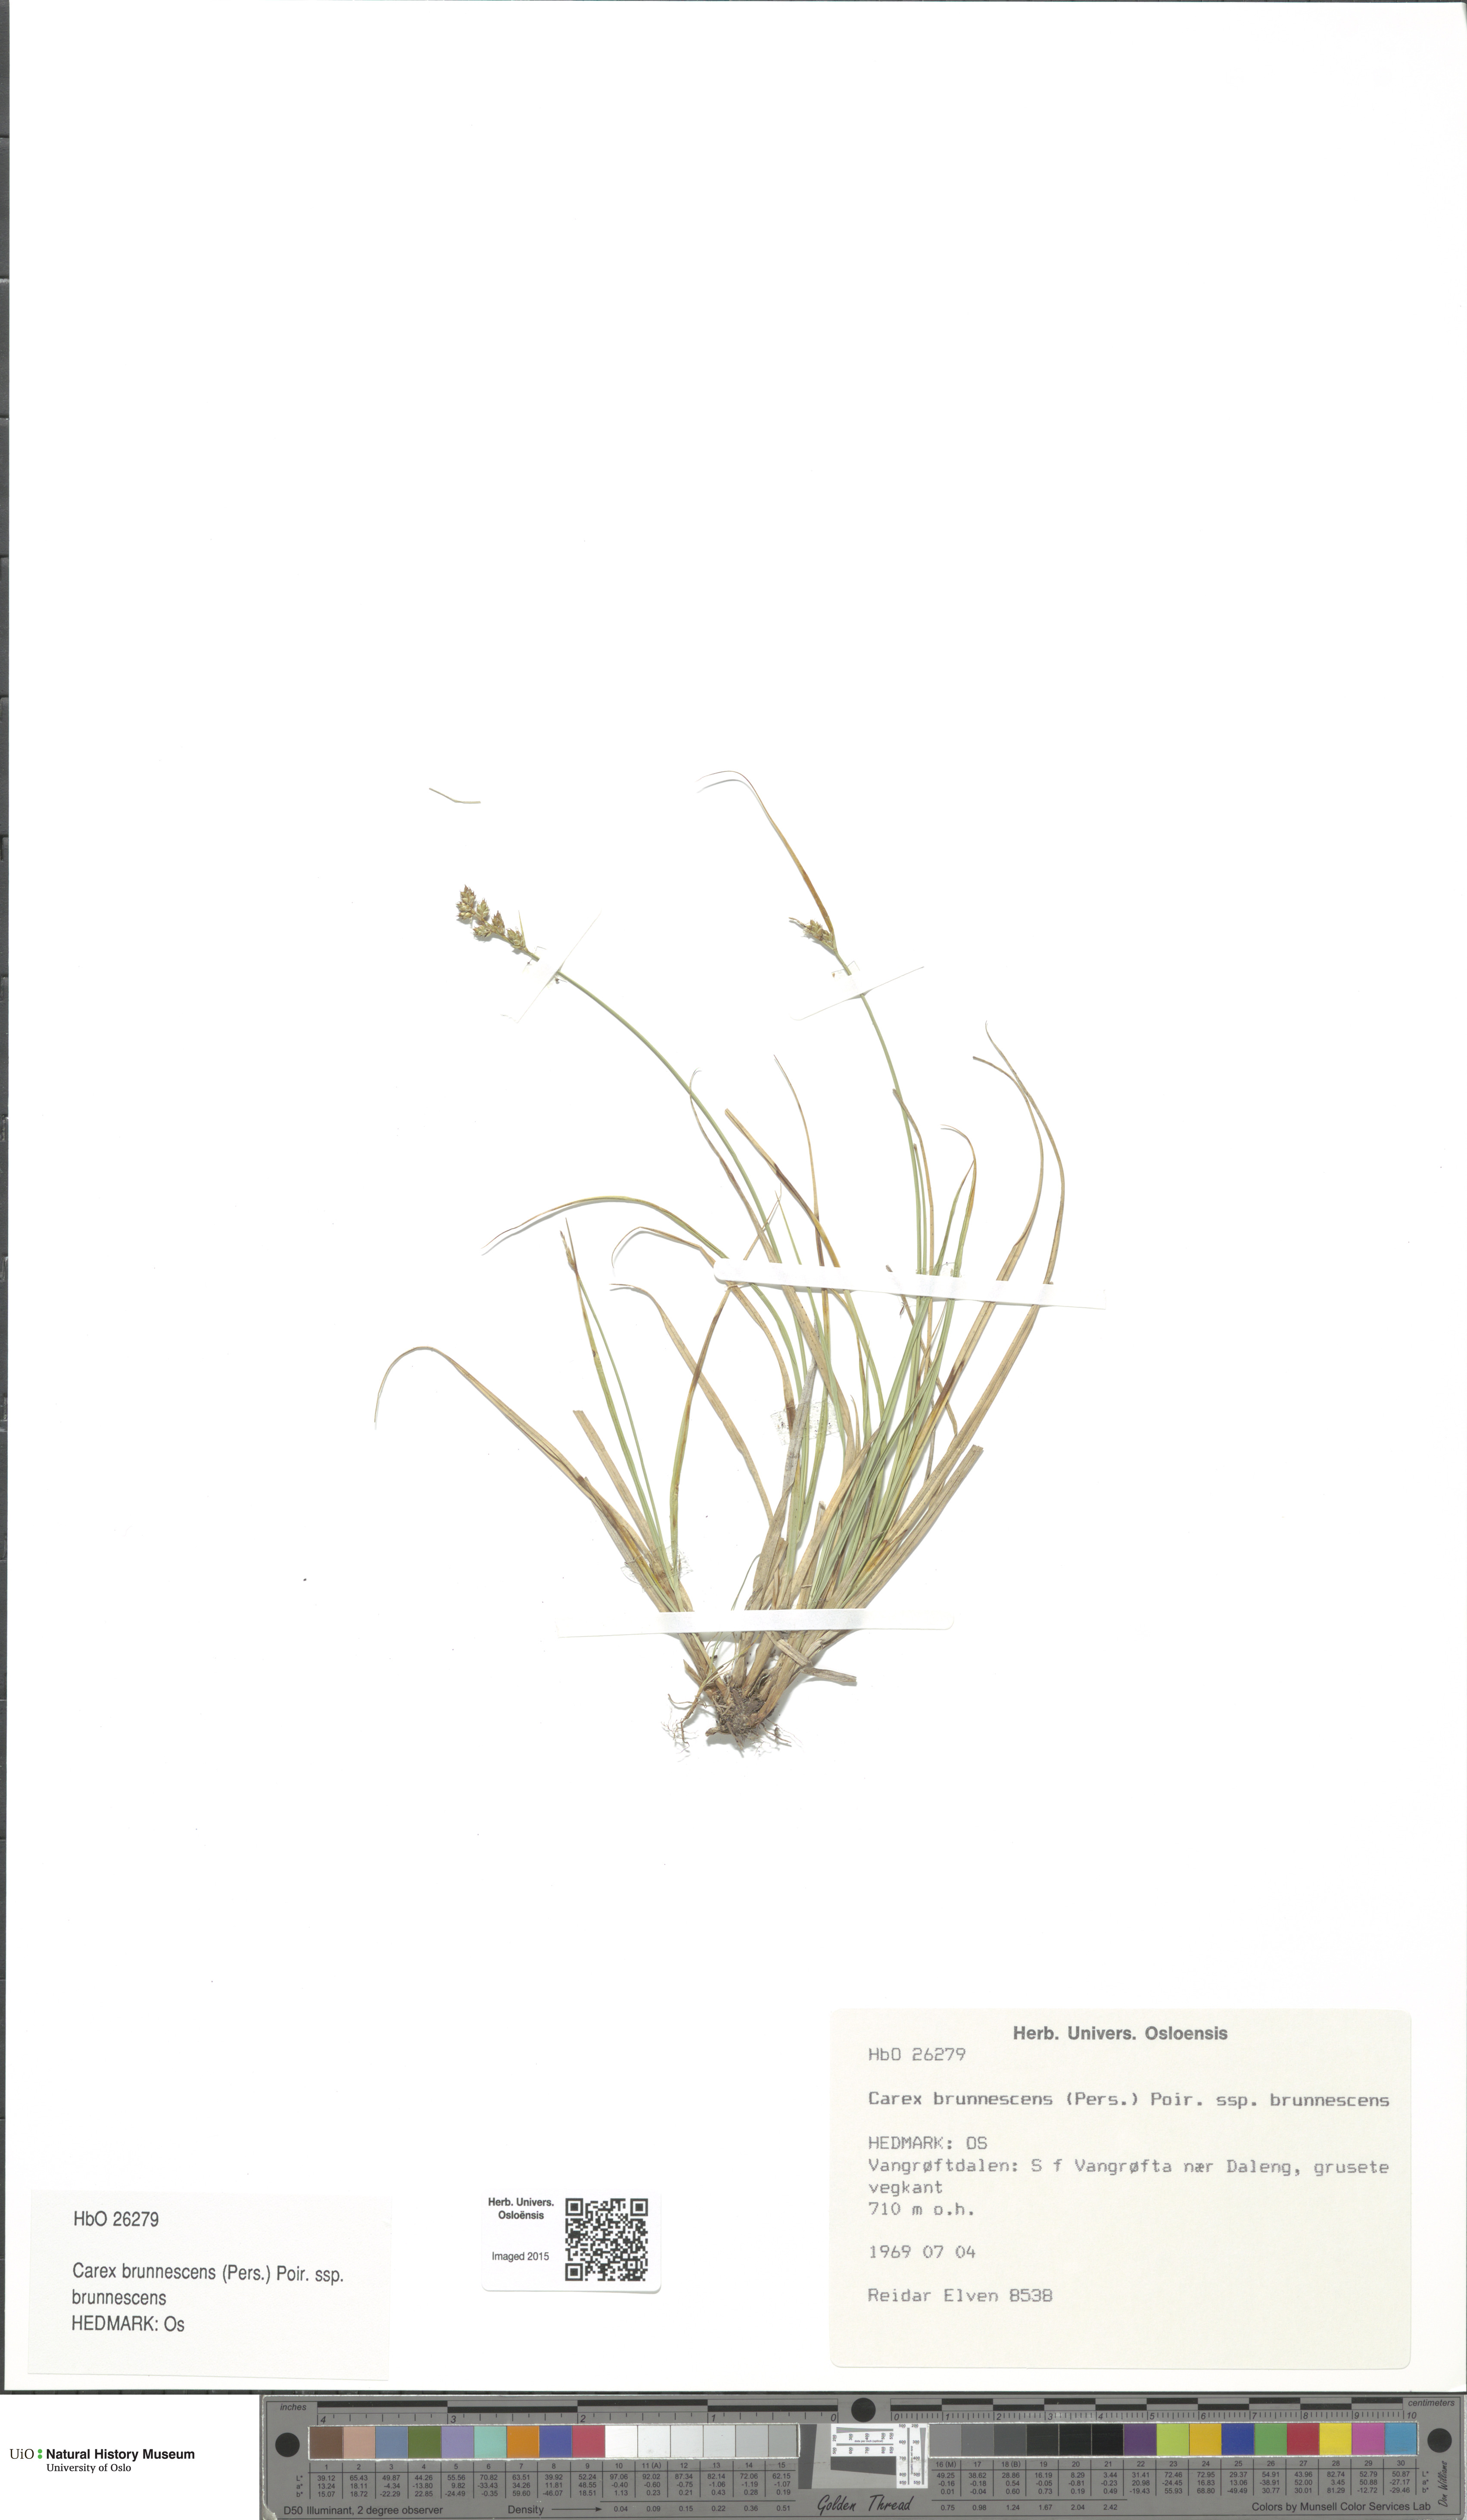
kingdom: Plantae
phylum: Tracheophyta
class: Liliopsida
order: Poales
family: Cyperaceae
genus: Carex
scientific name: Carex brunnescens
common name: Brown sedge
